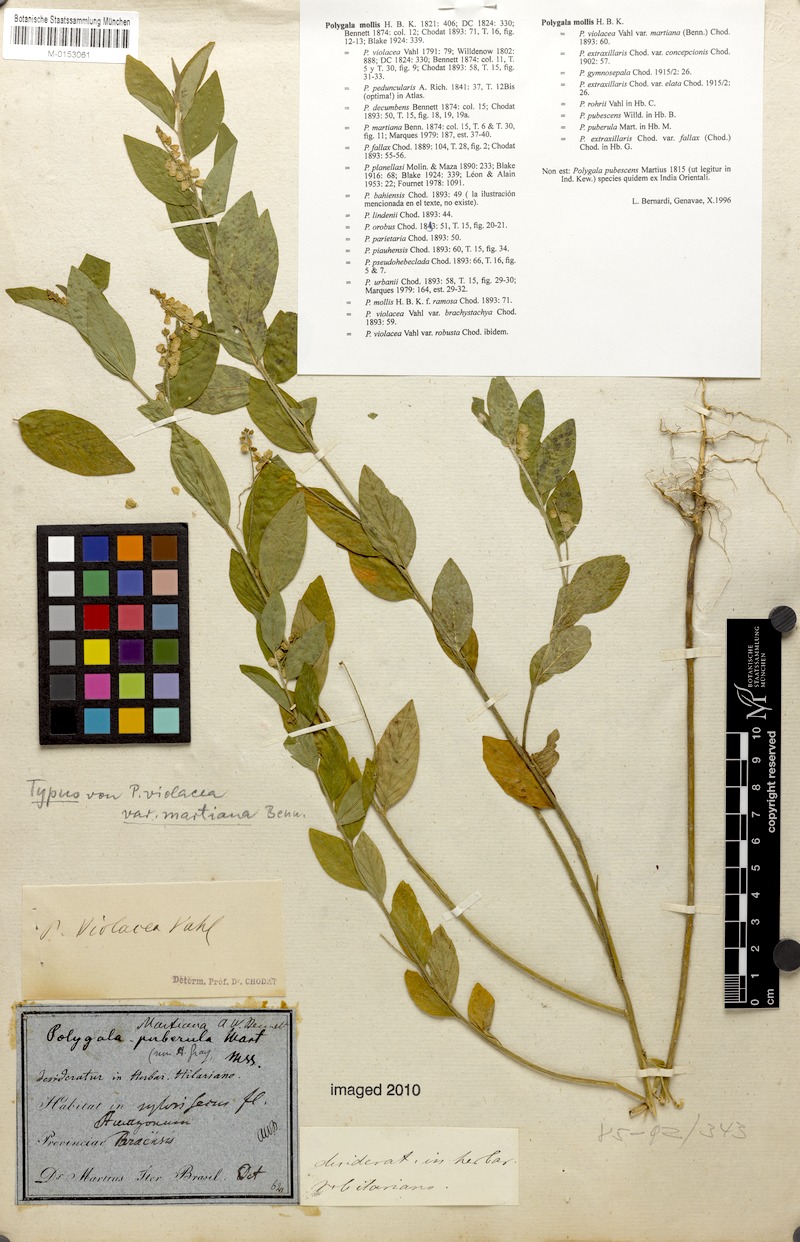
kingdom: Plantae
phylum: Tracheophyta
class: Magnoliopsida
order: Fabales
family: Polygalaceae
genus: Asemeia
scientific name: Asemeia martiana
